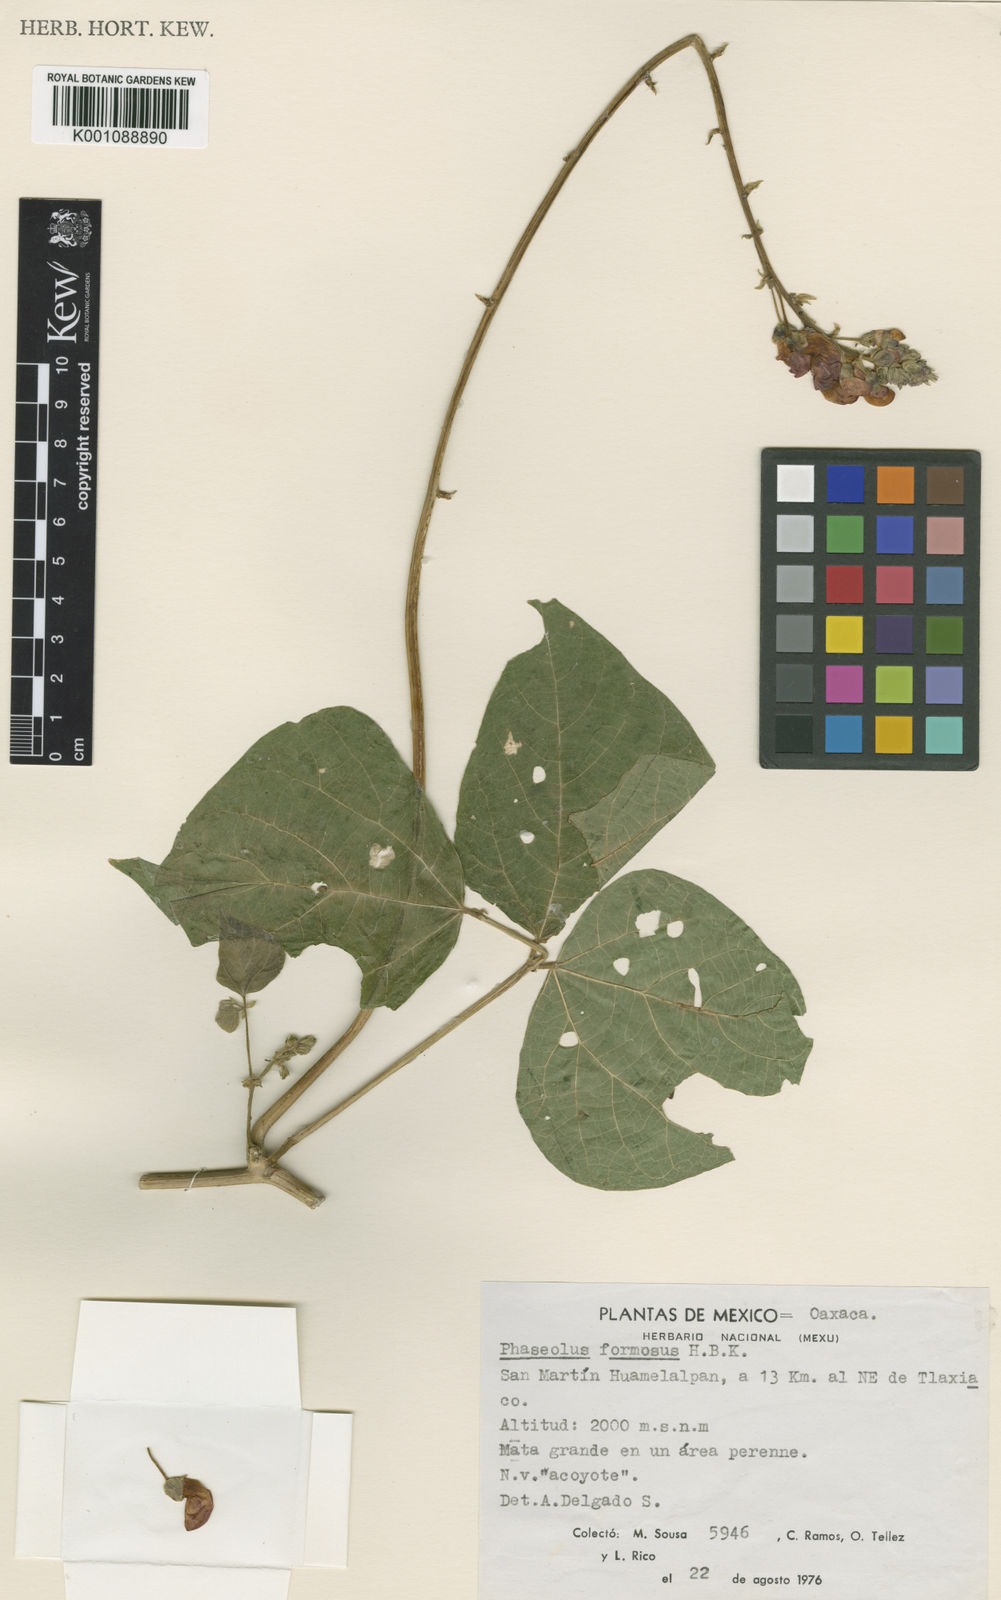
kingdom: Plantae
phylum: Tracheophyta
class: Magnoliopsida
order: Fabales
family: Fabaceae
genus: Phaseolus
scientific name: Phaseolus coccineus
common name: Runner bean
